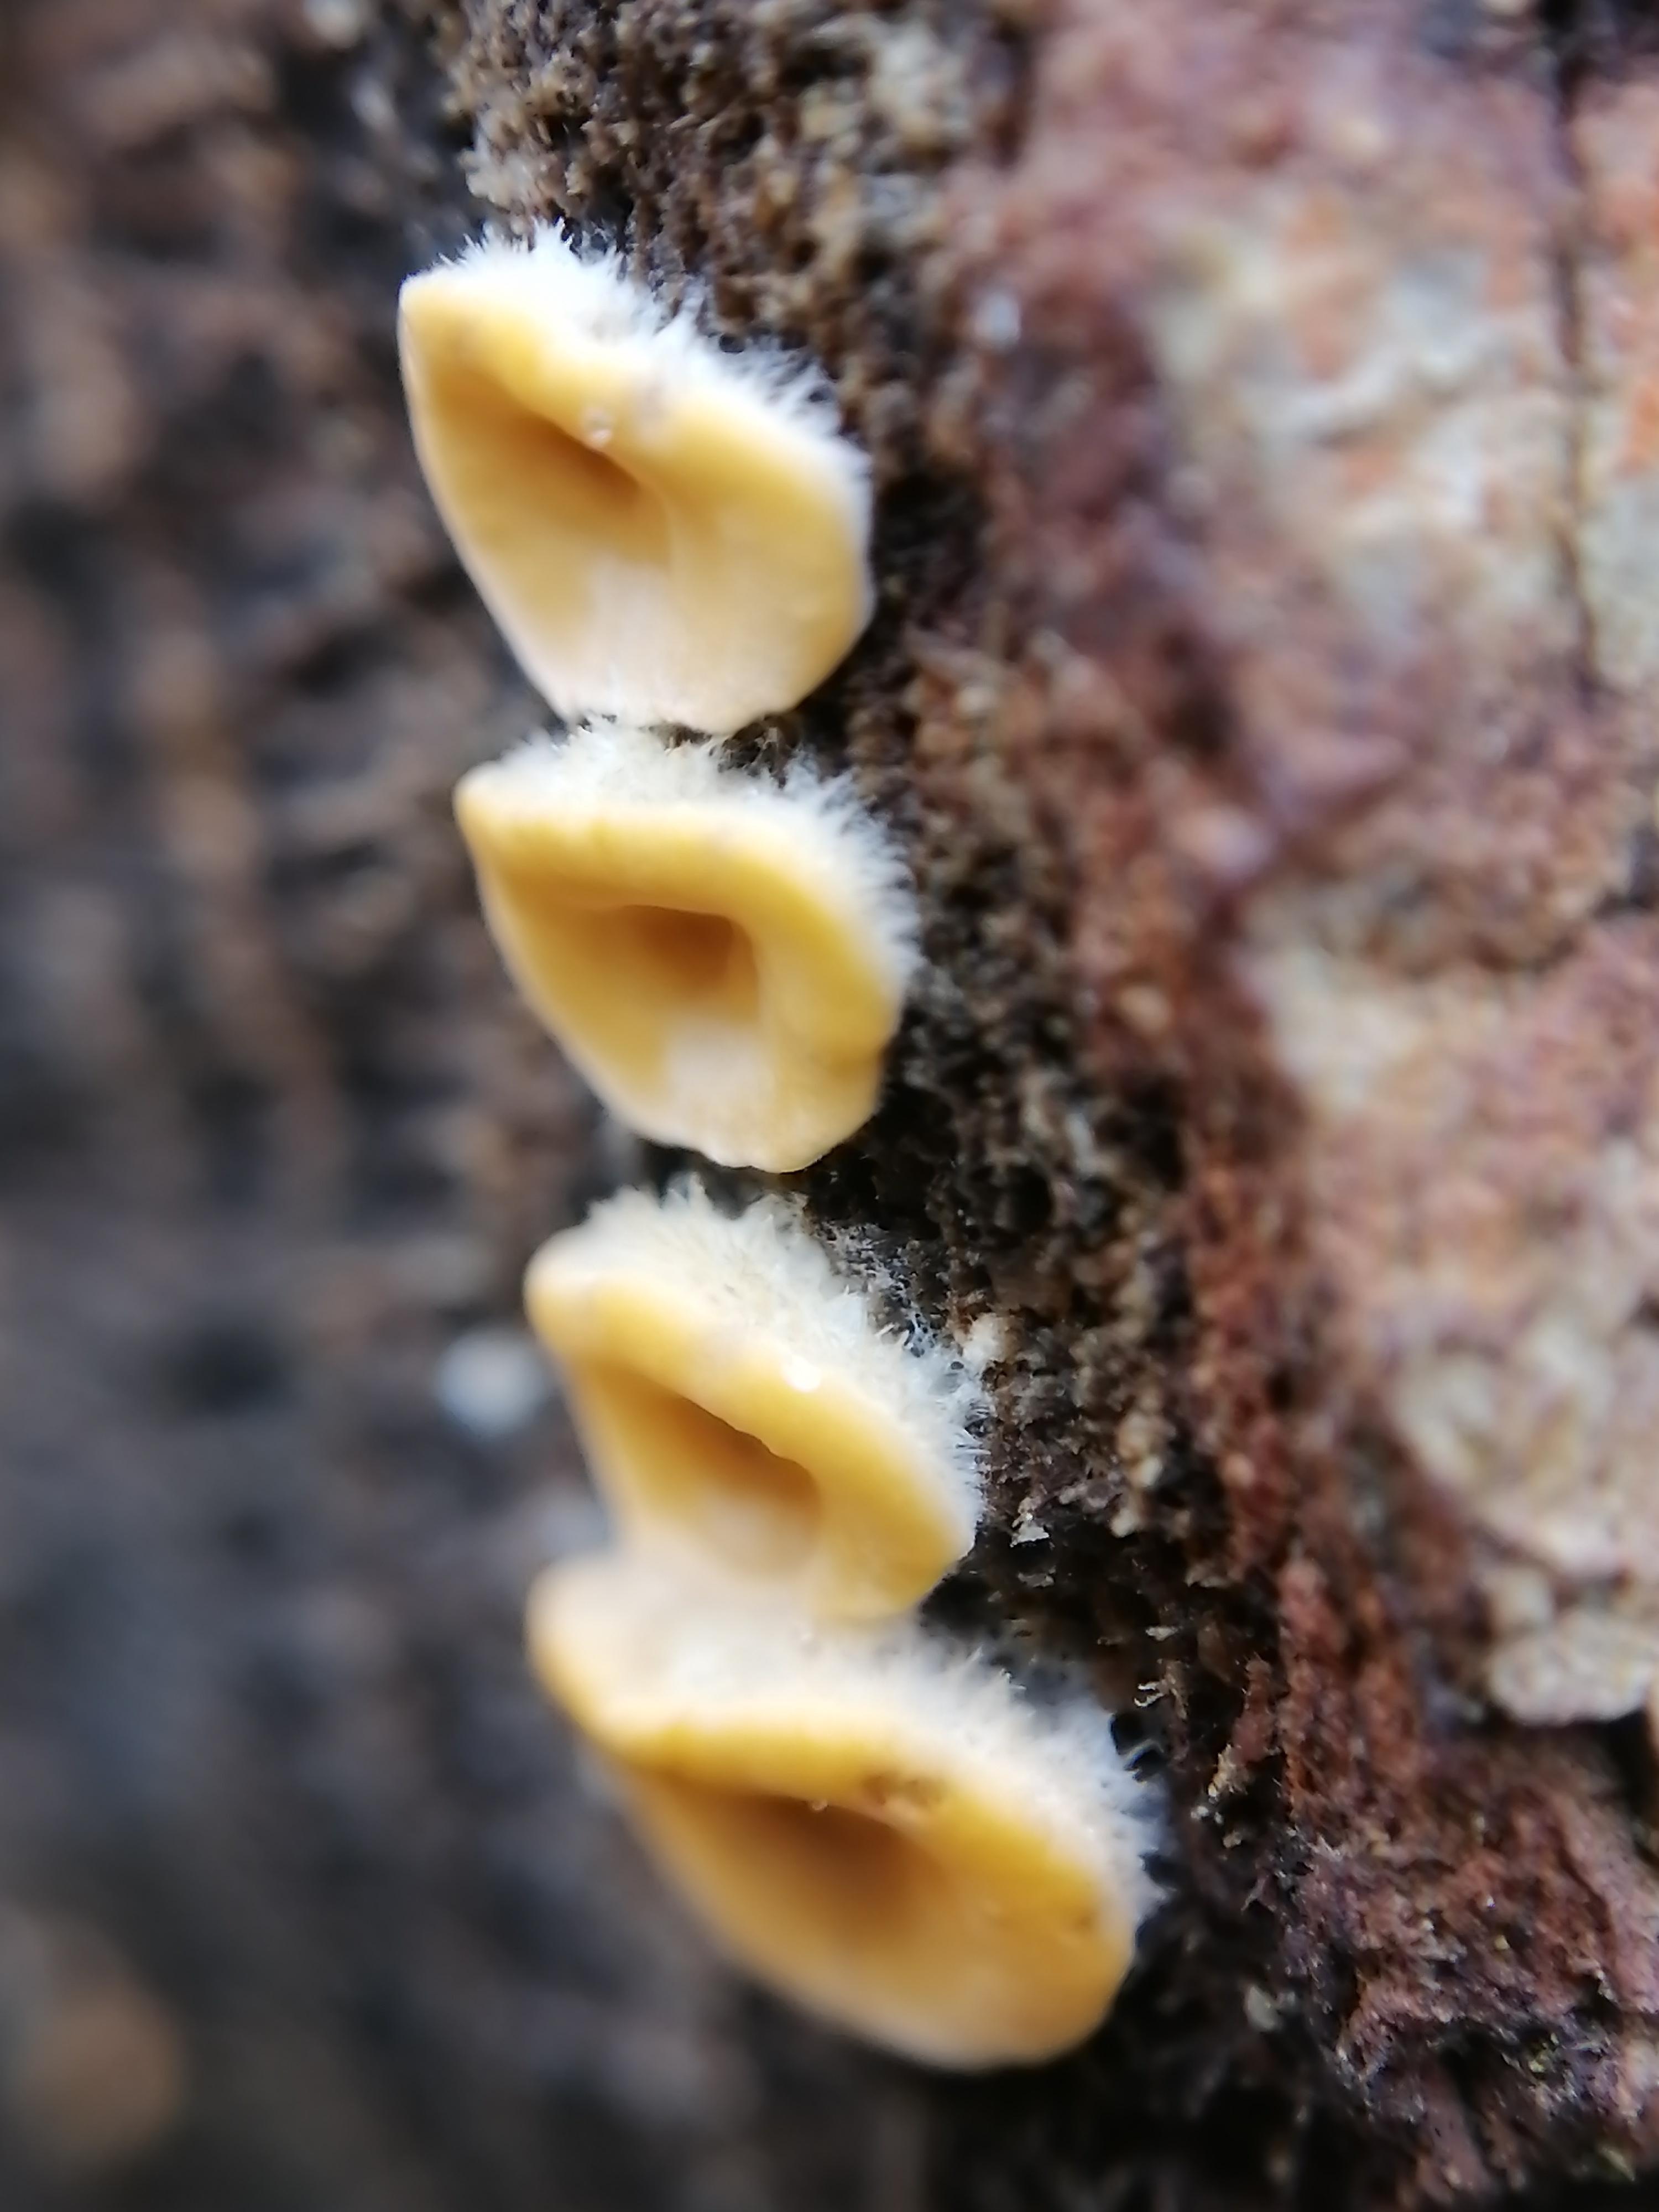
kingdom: Fungi
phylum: Basidiomycota
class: Agaricomycetes
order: Russulales
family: Stereaceae
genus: Stereum
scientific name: Stereum hirsutum
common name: håret lædersvamp
